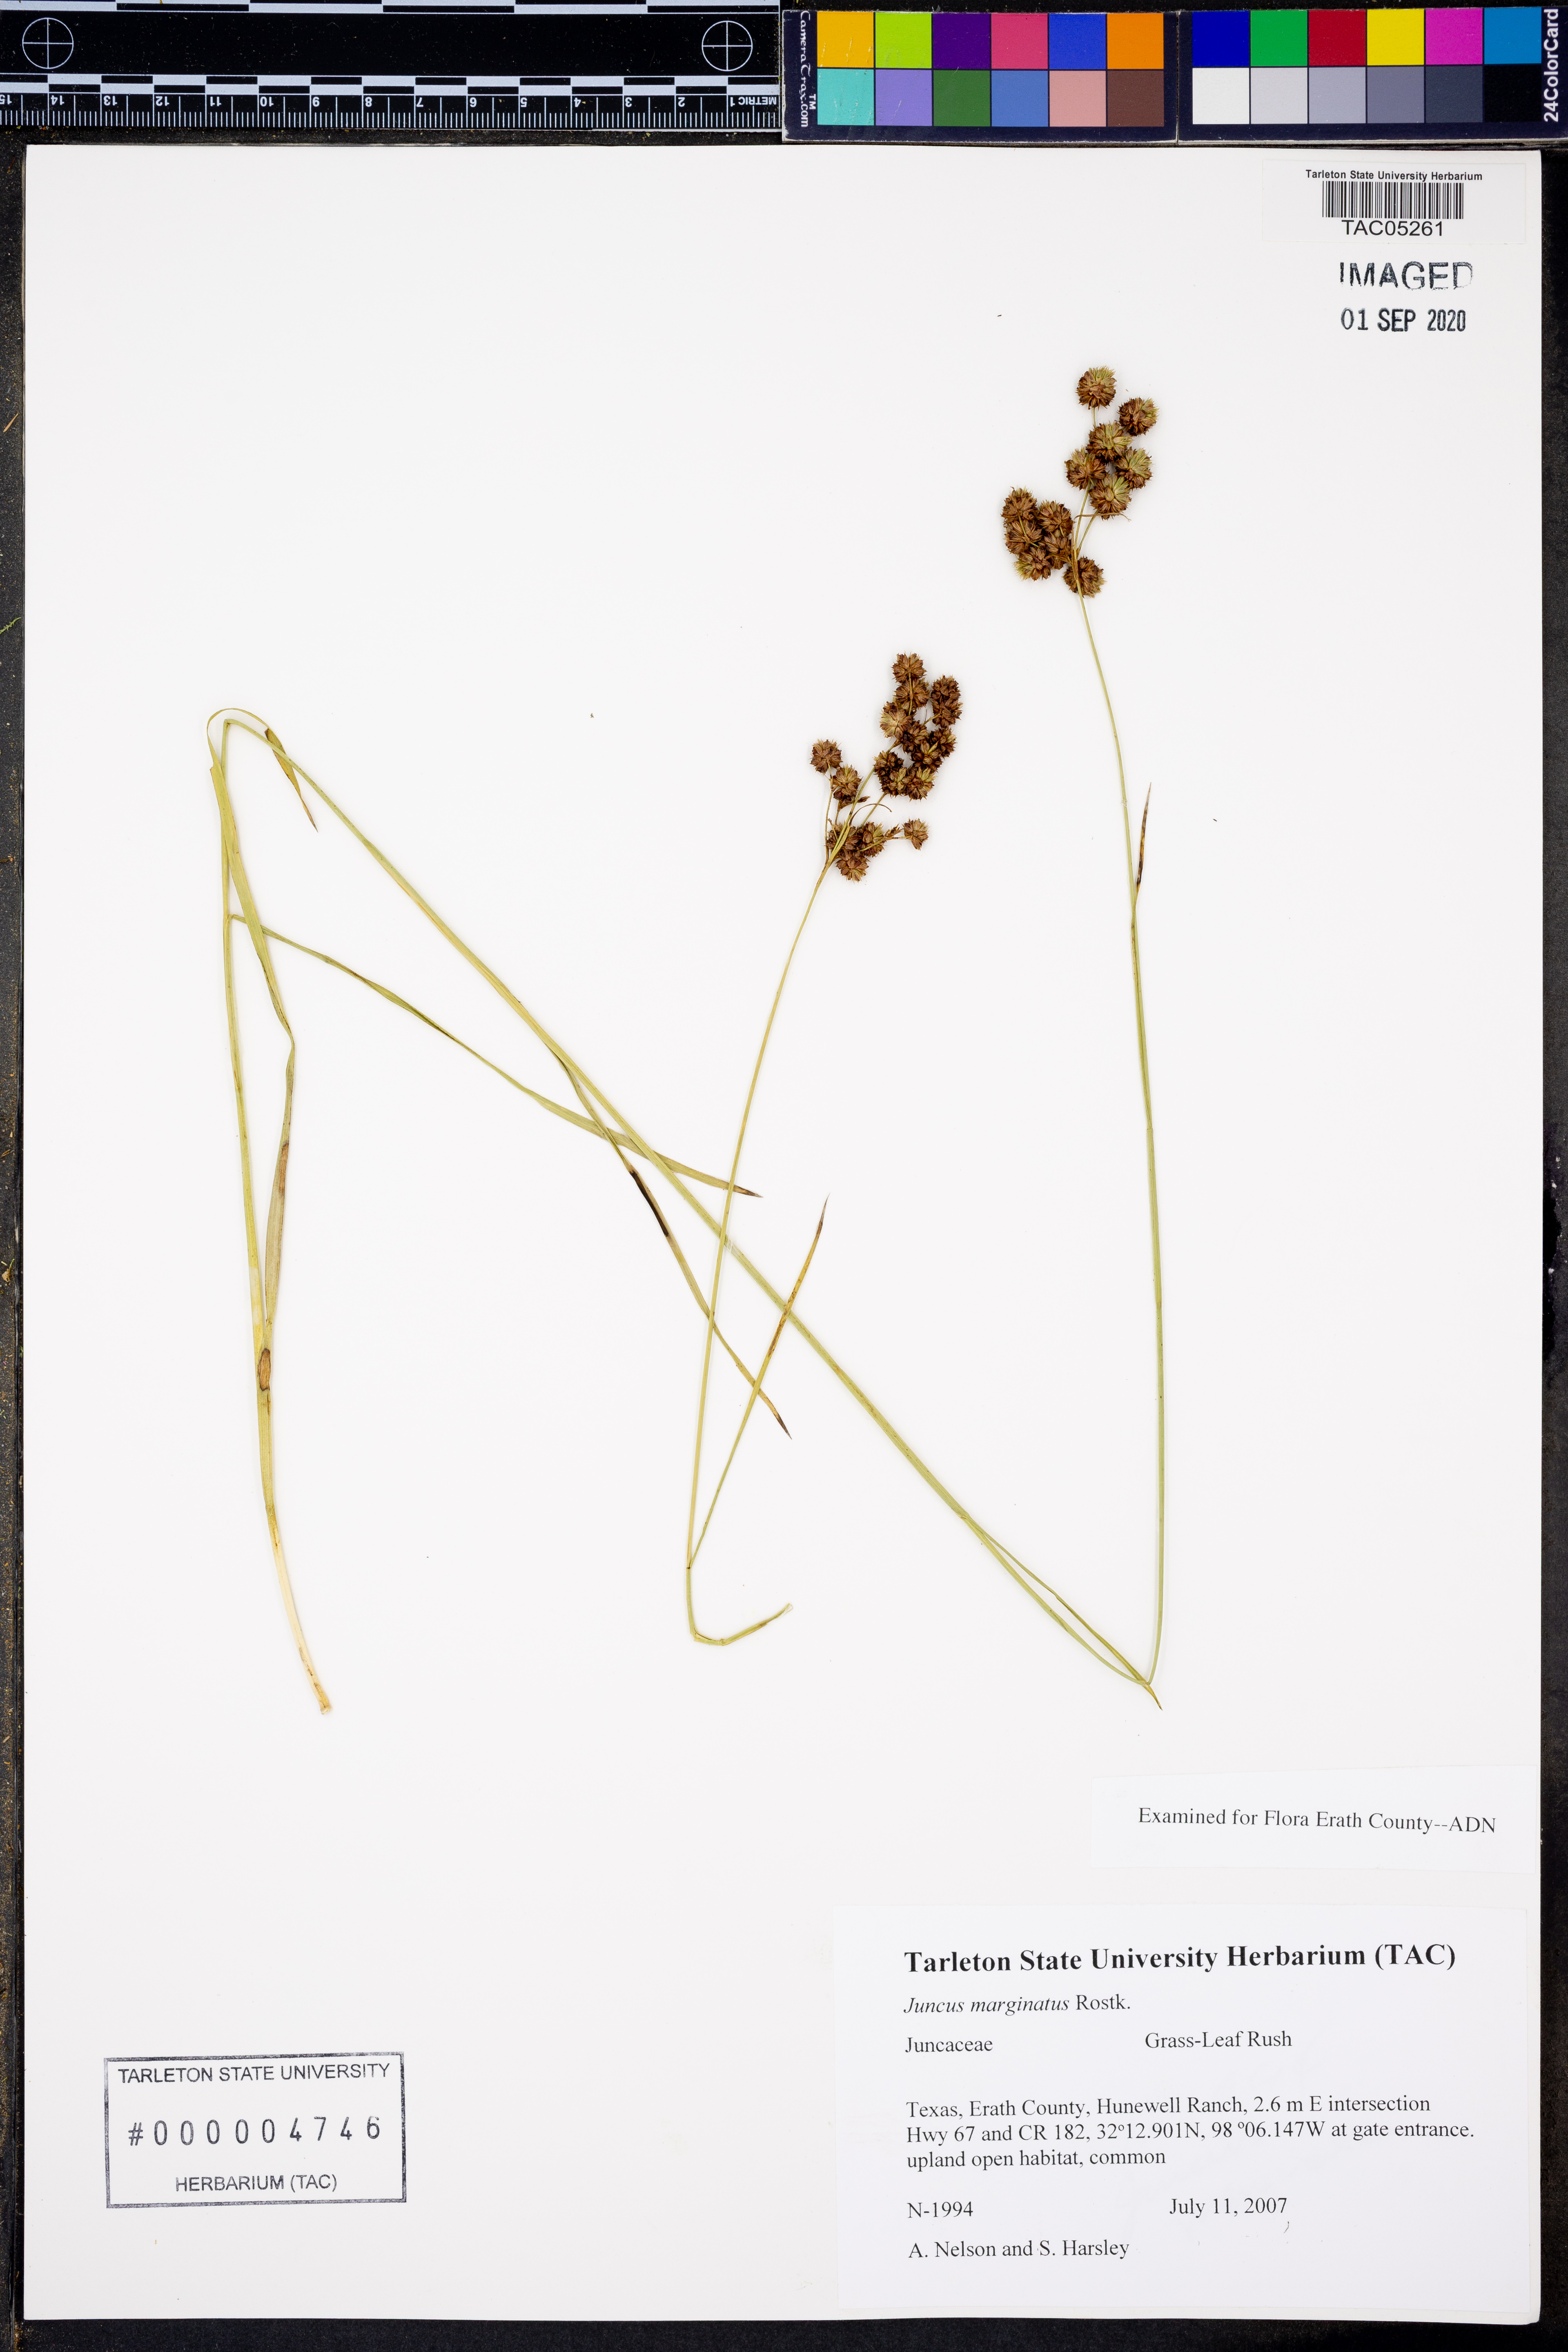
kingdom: Plantae
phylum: Tracheophyta
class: Liliopsida
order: Poales
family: Juncaceae
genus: Juncus
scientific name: Juncus marginatus
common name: Grass-leaf rush
